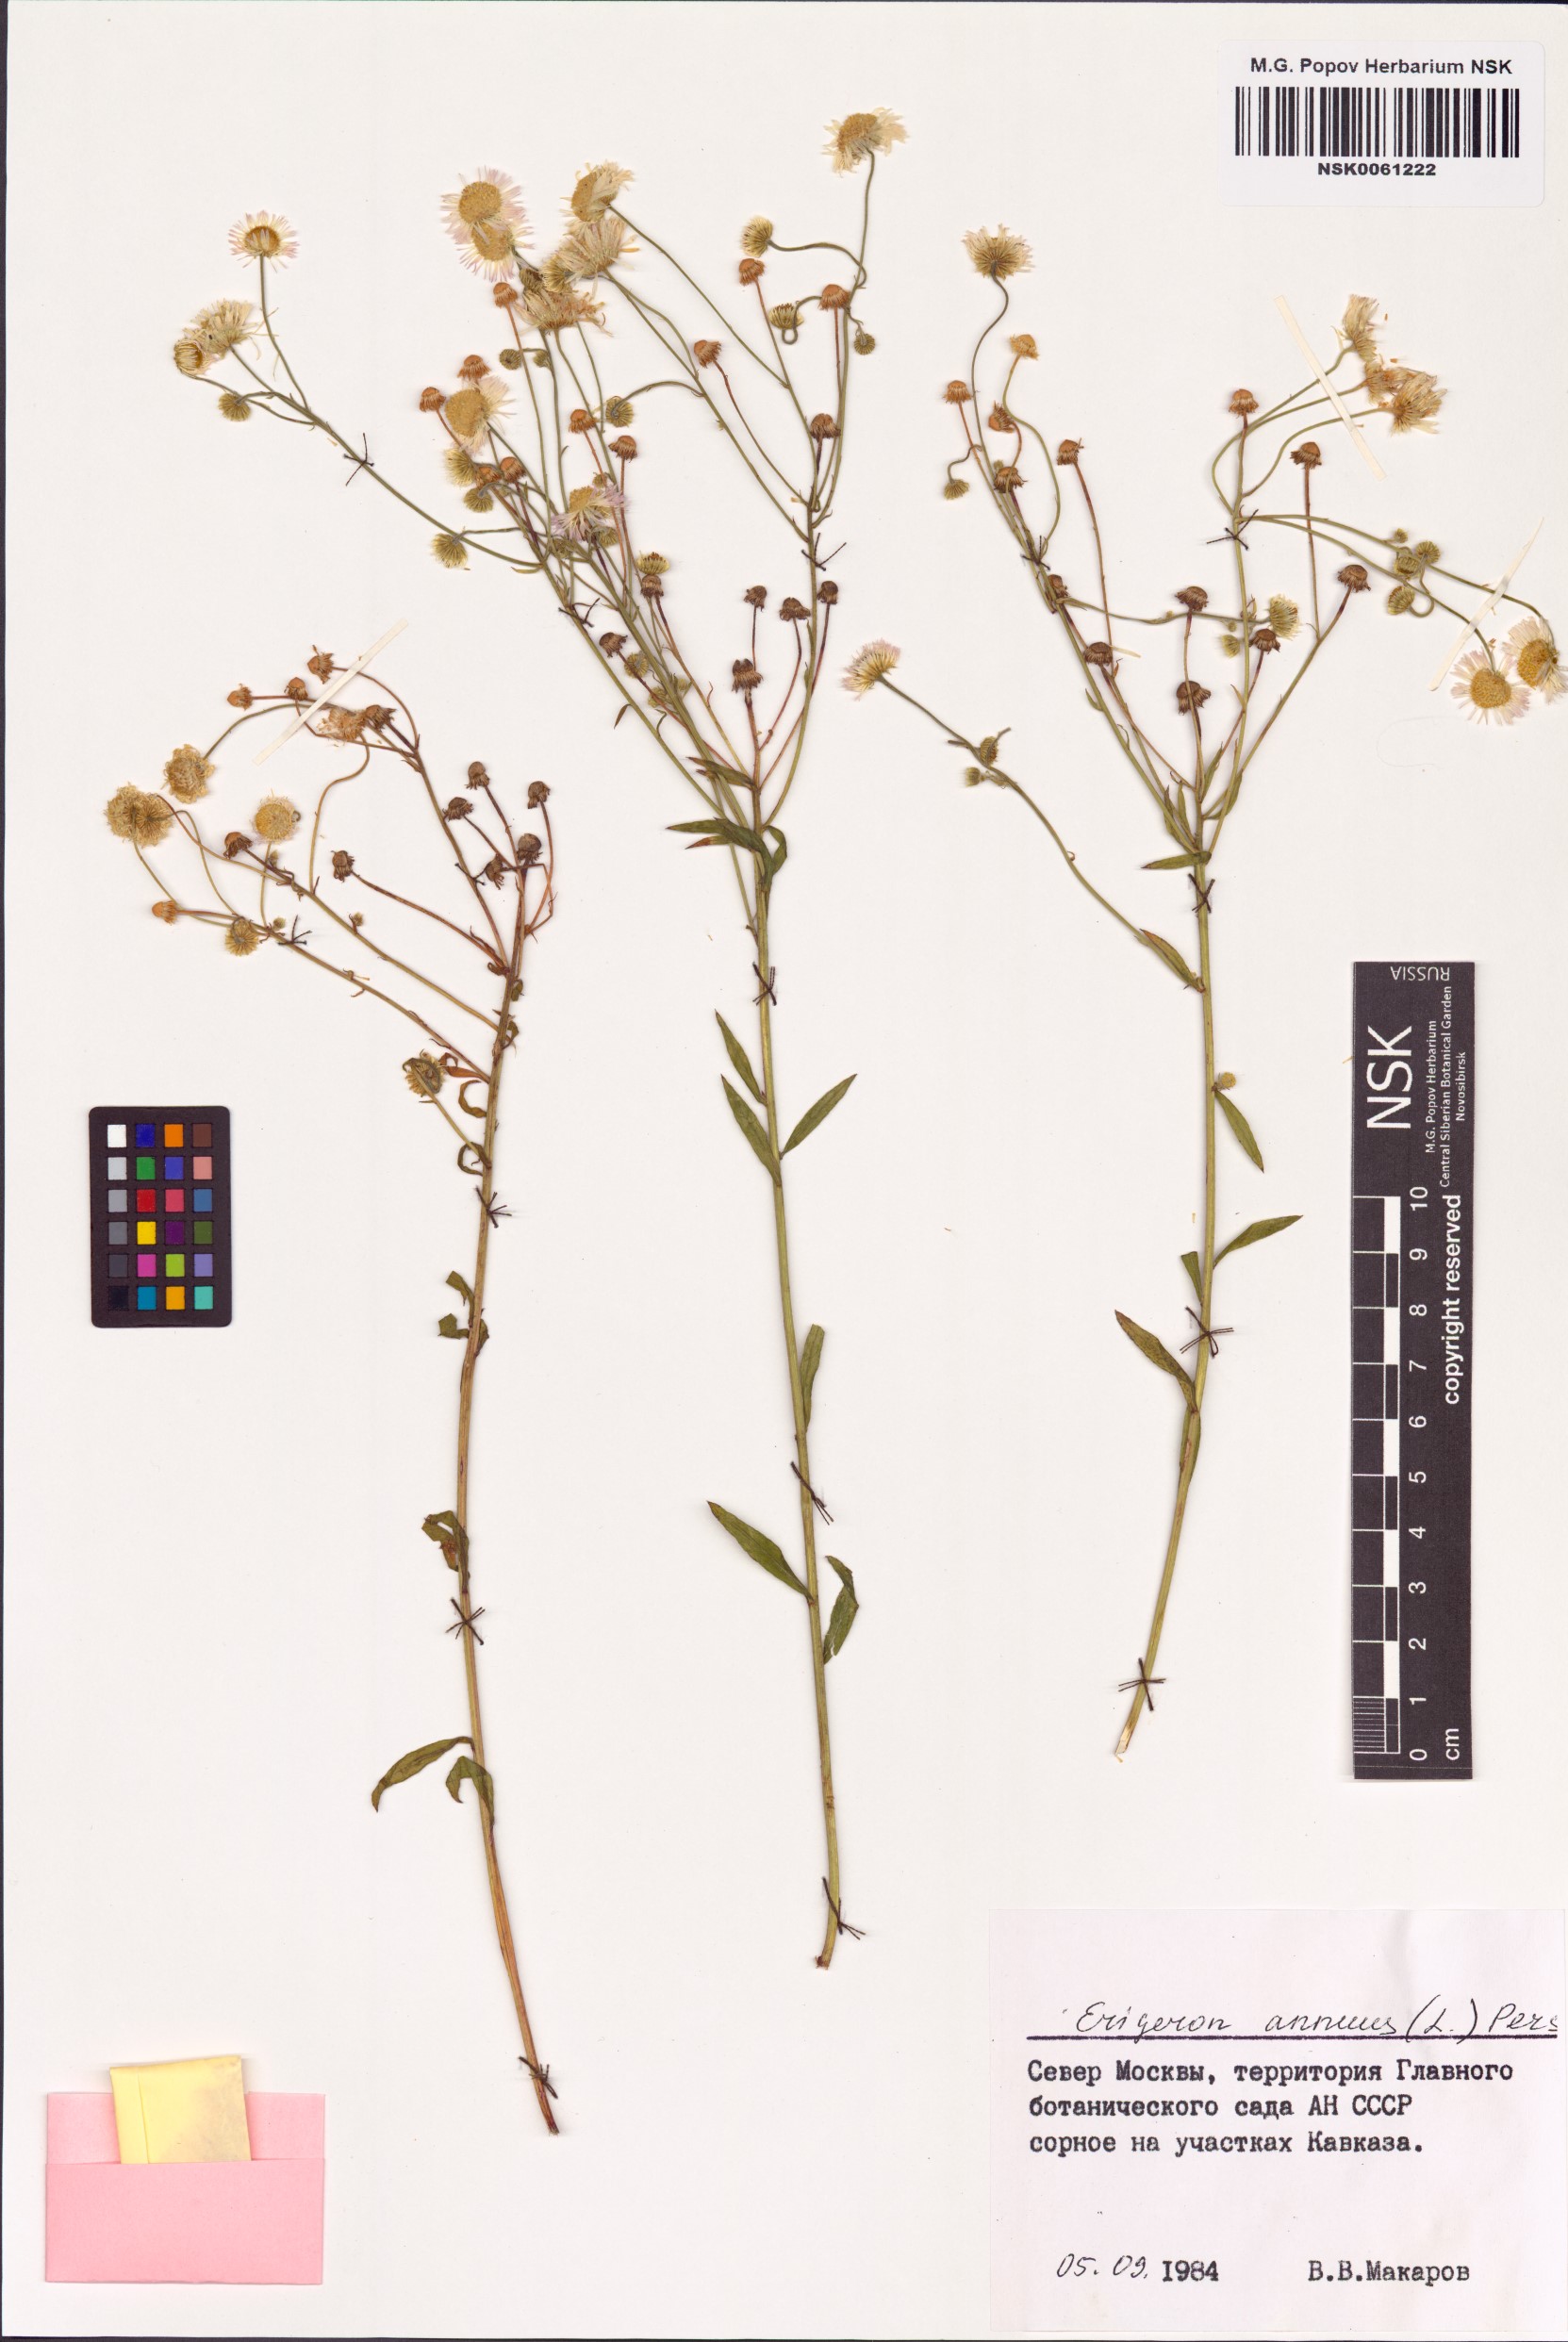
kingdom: Plantae
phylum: Tracheophyta
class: Magnoliopsida
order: Asterales
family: Asteraceae
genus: Erigeron
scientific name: Erigeron annuus
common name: Tall fleabane
